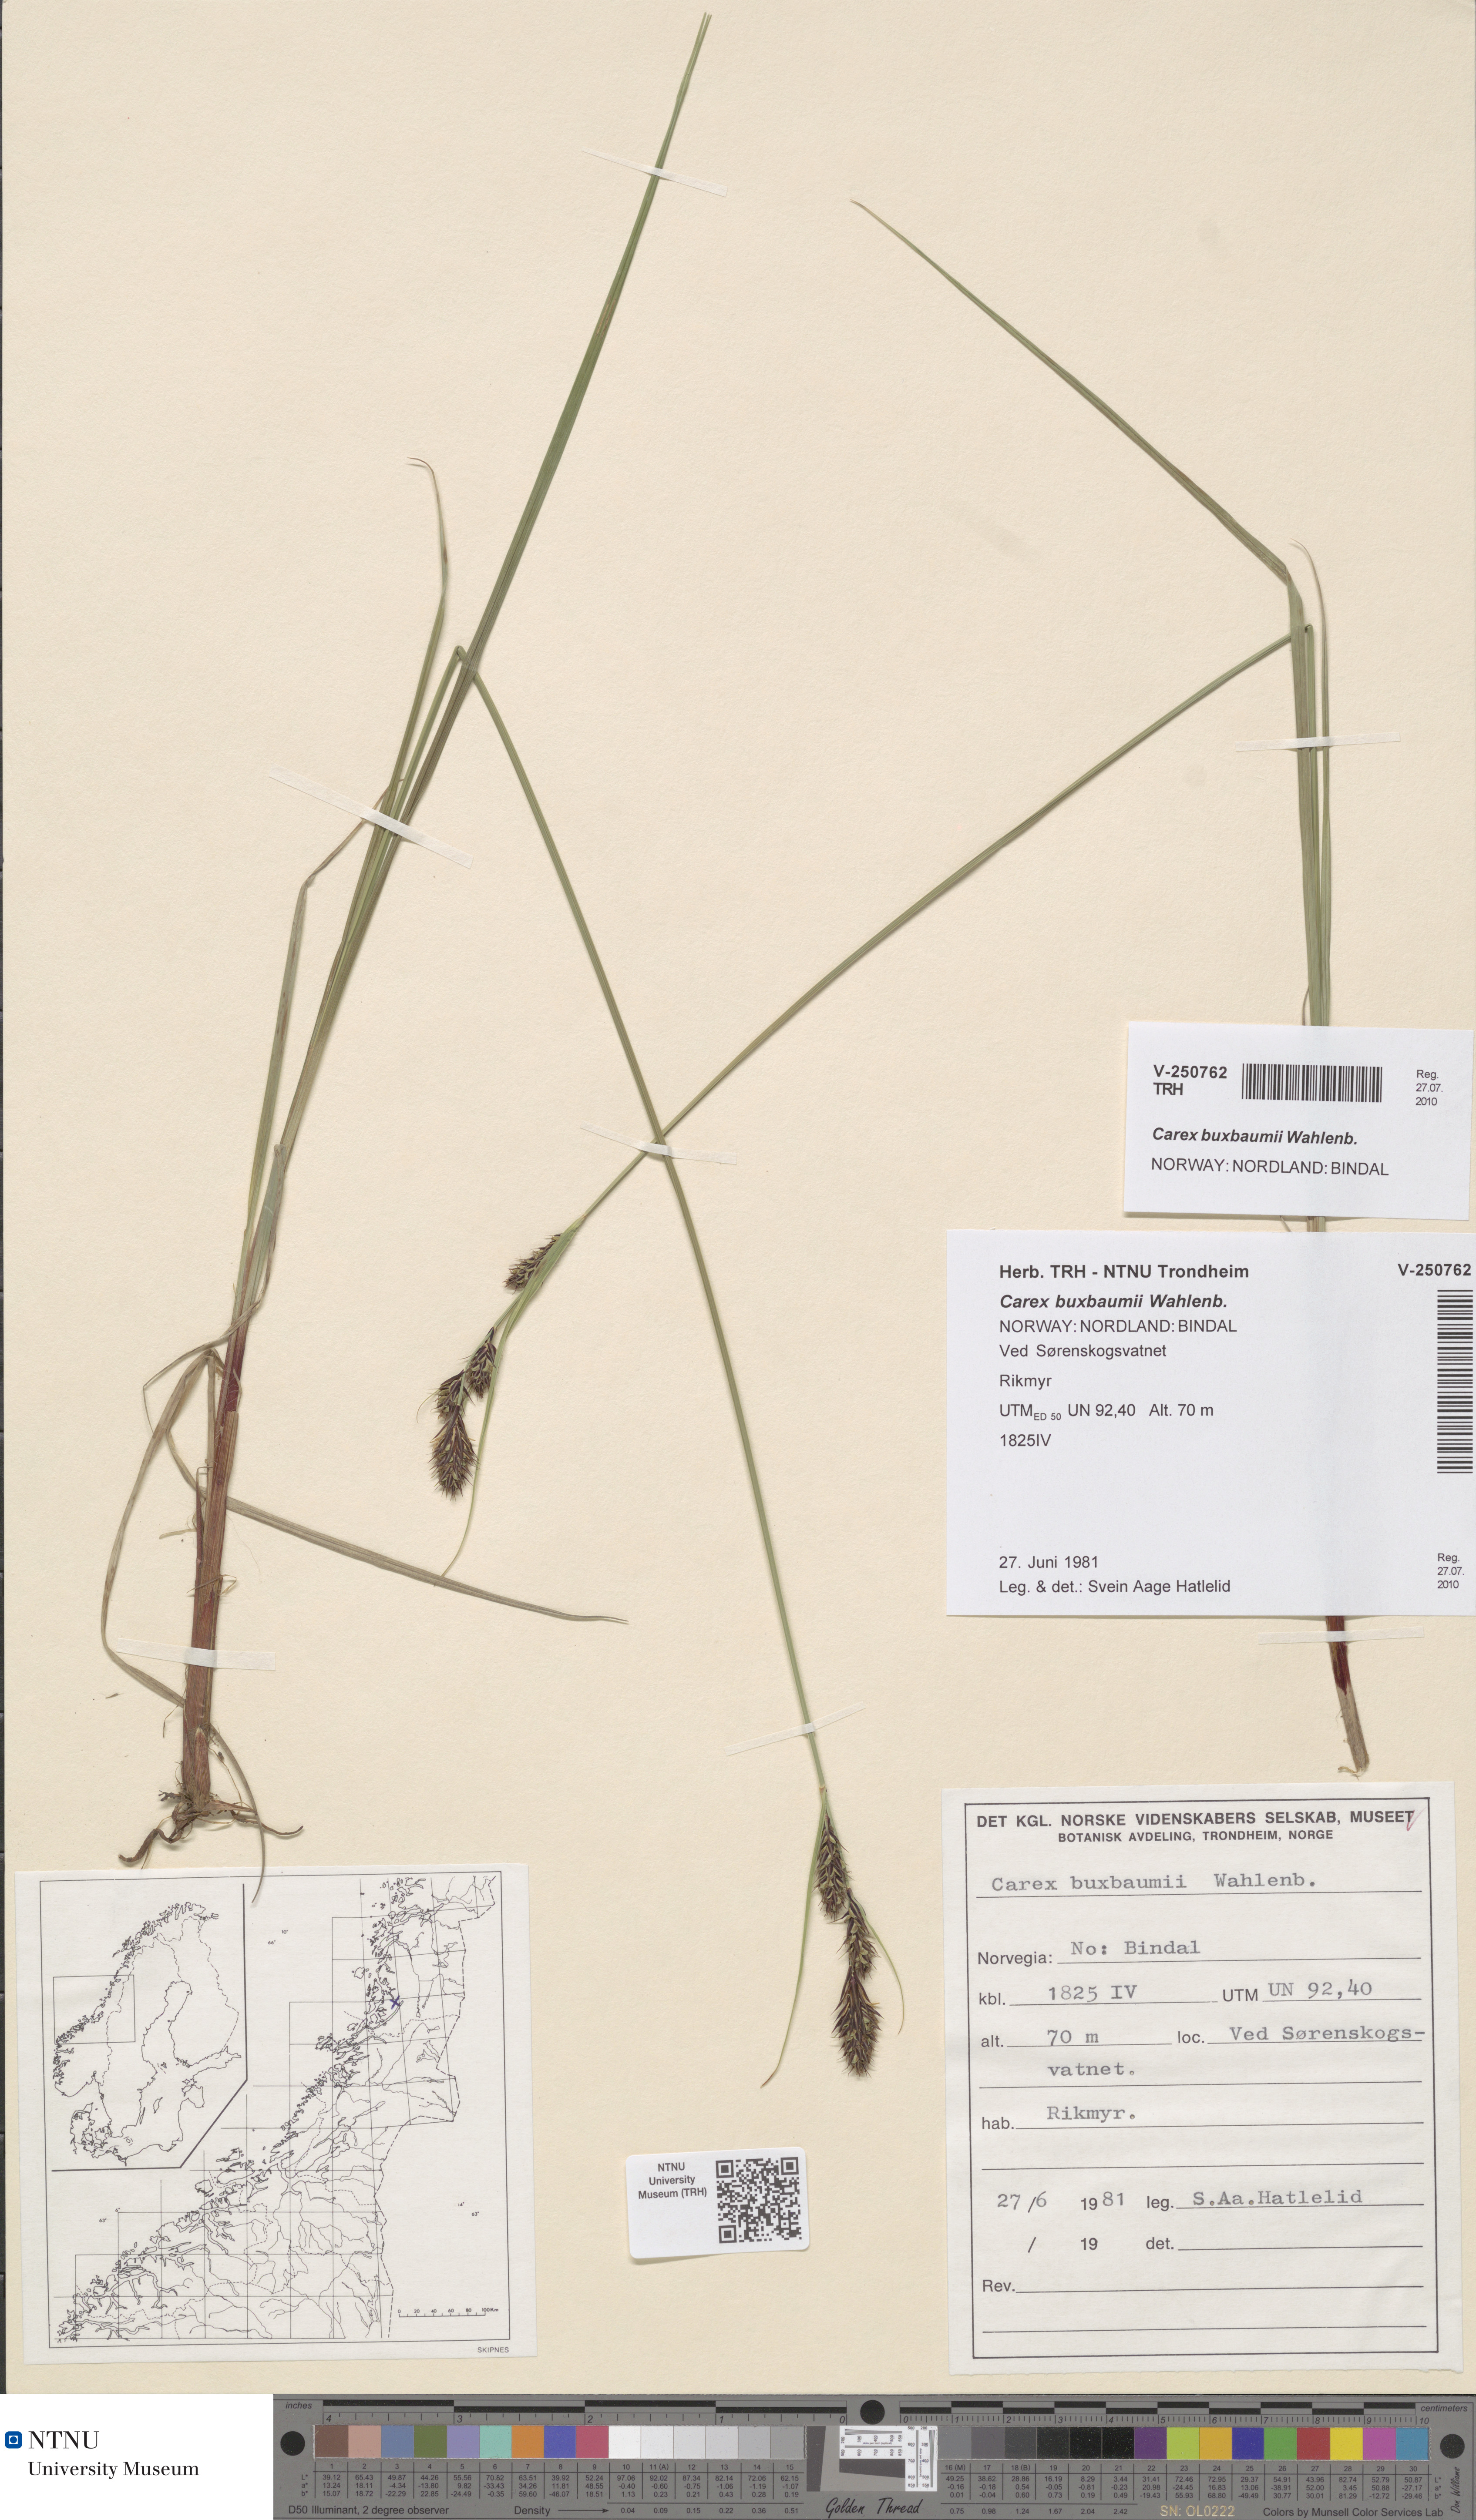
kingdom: Plantae
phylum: Tracheophyta
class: Liliopsida
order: Poales
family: Cyperaceae
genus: Carex
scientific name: Carex buxbaumii
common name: Club sedge
